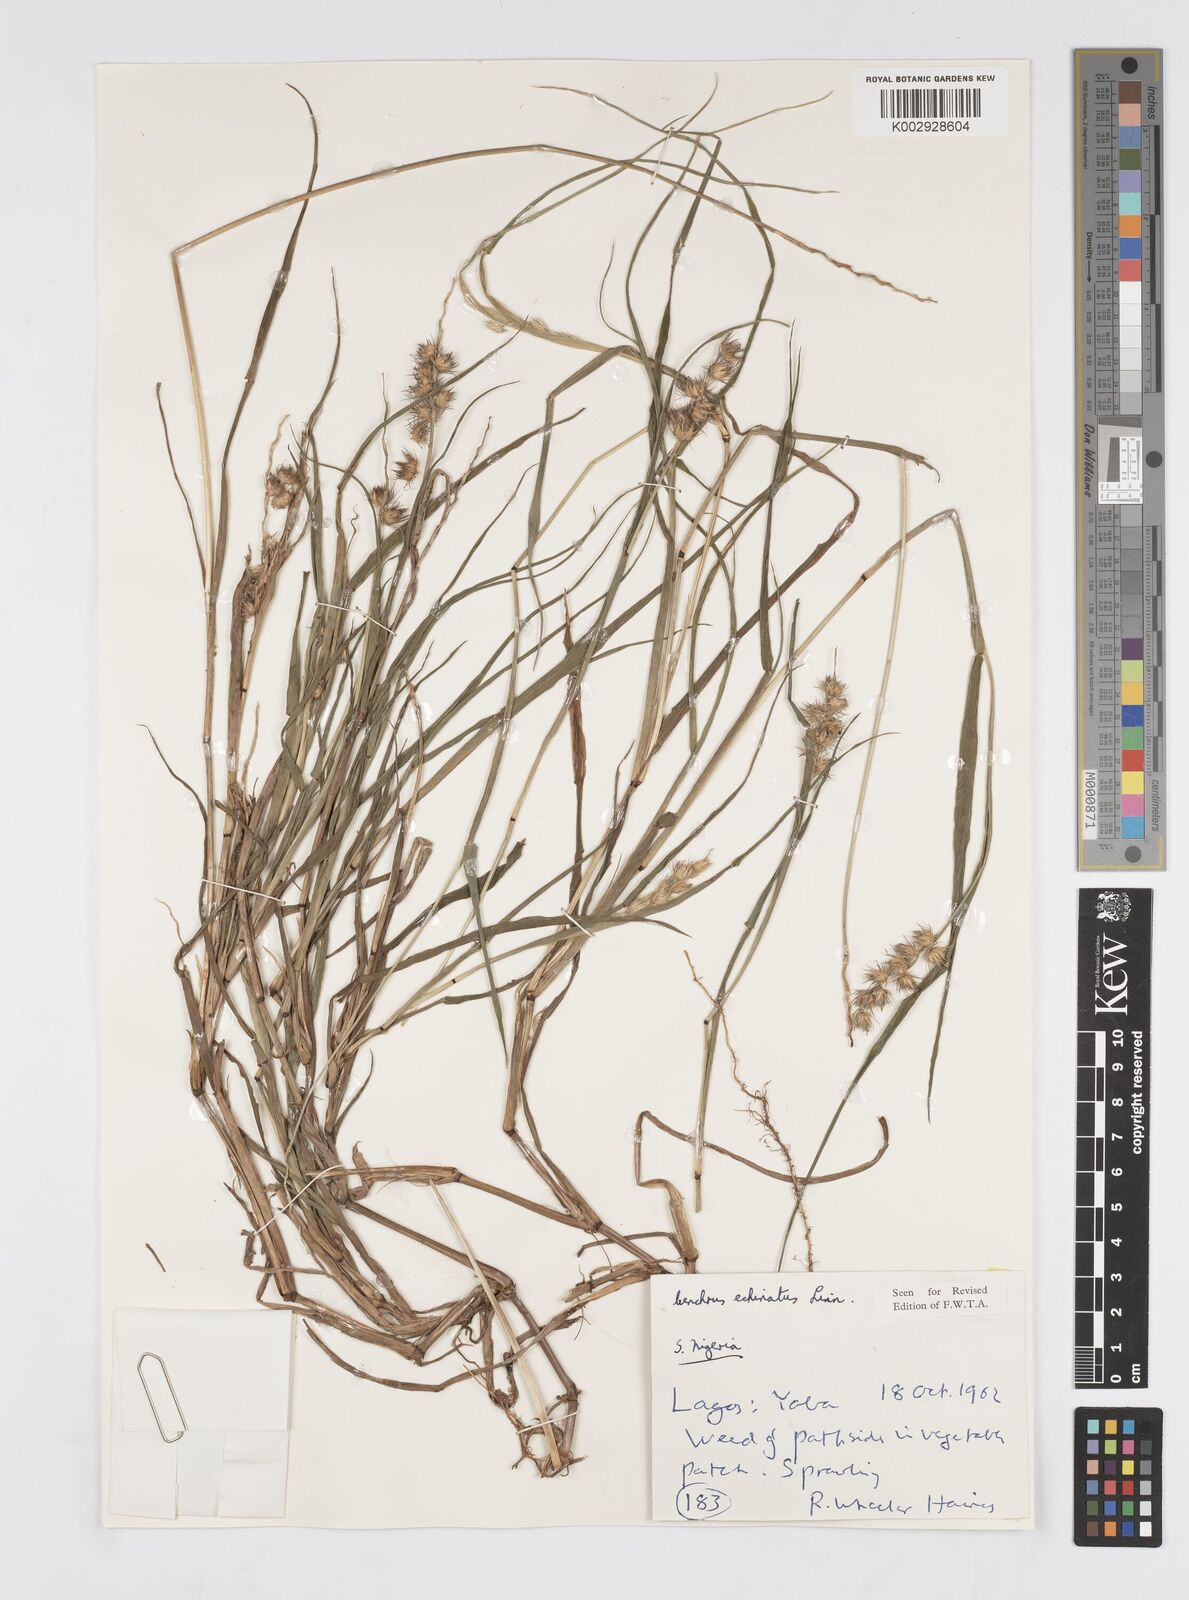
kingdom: Plantae
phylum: Tracheophyta
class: Liliopsida
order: Poales
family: Poaceae
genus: Cenchrus
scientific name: Cenchrus echinatus
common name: Southern sandbur
